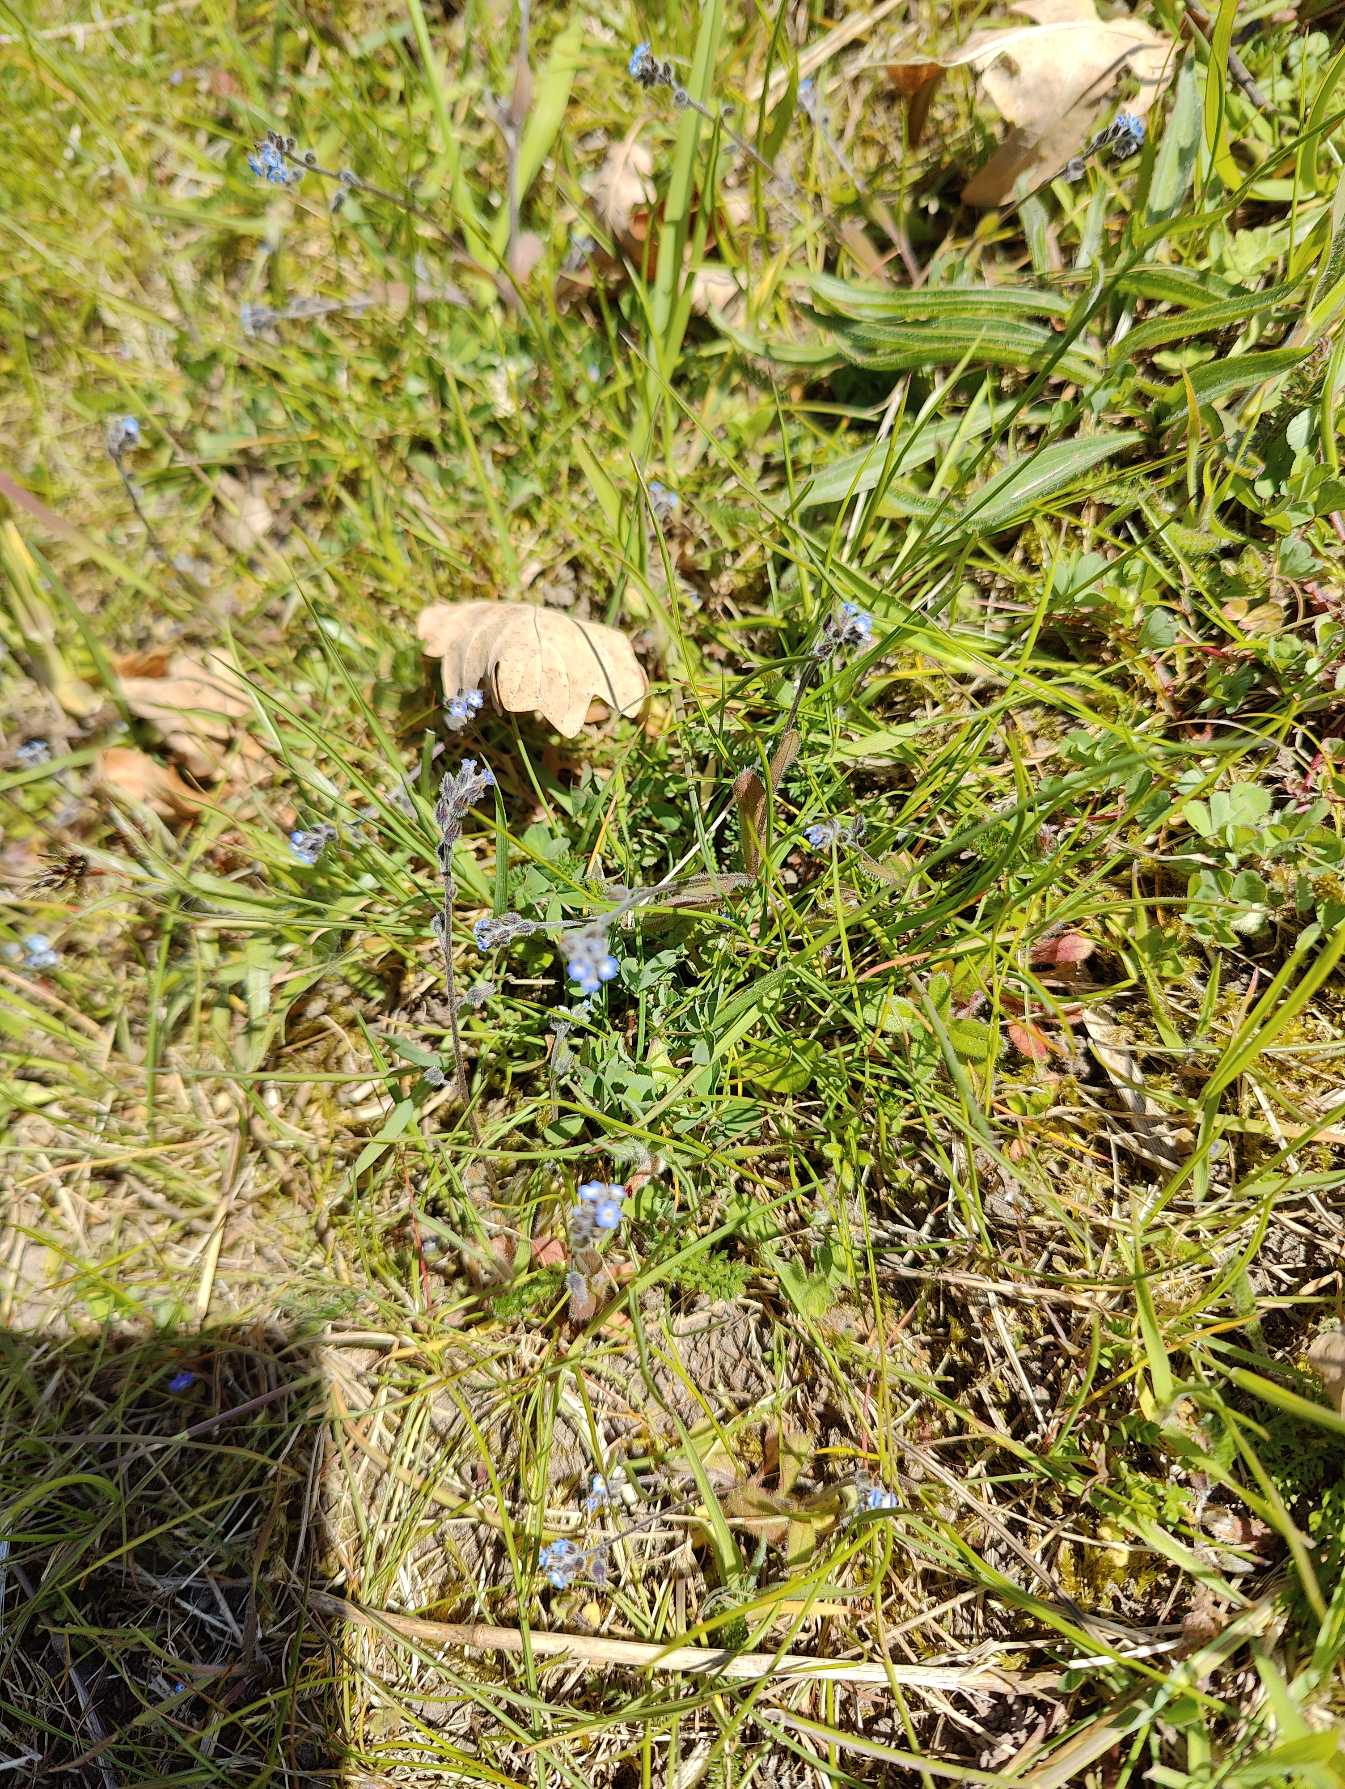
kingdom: Plantae
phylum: Tracheophyta
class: Magnoliopsida
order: Boraginales
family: Boraginaceae
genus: Myosotis
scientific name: Myosotis ramosissima
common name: Bakke-forglemmigej
